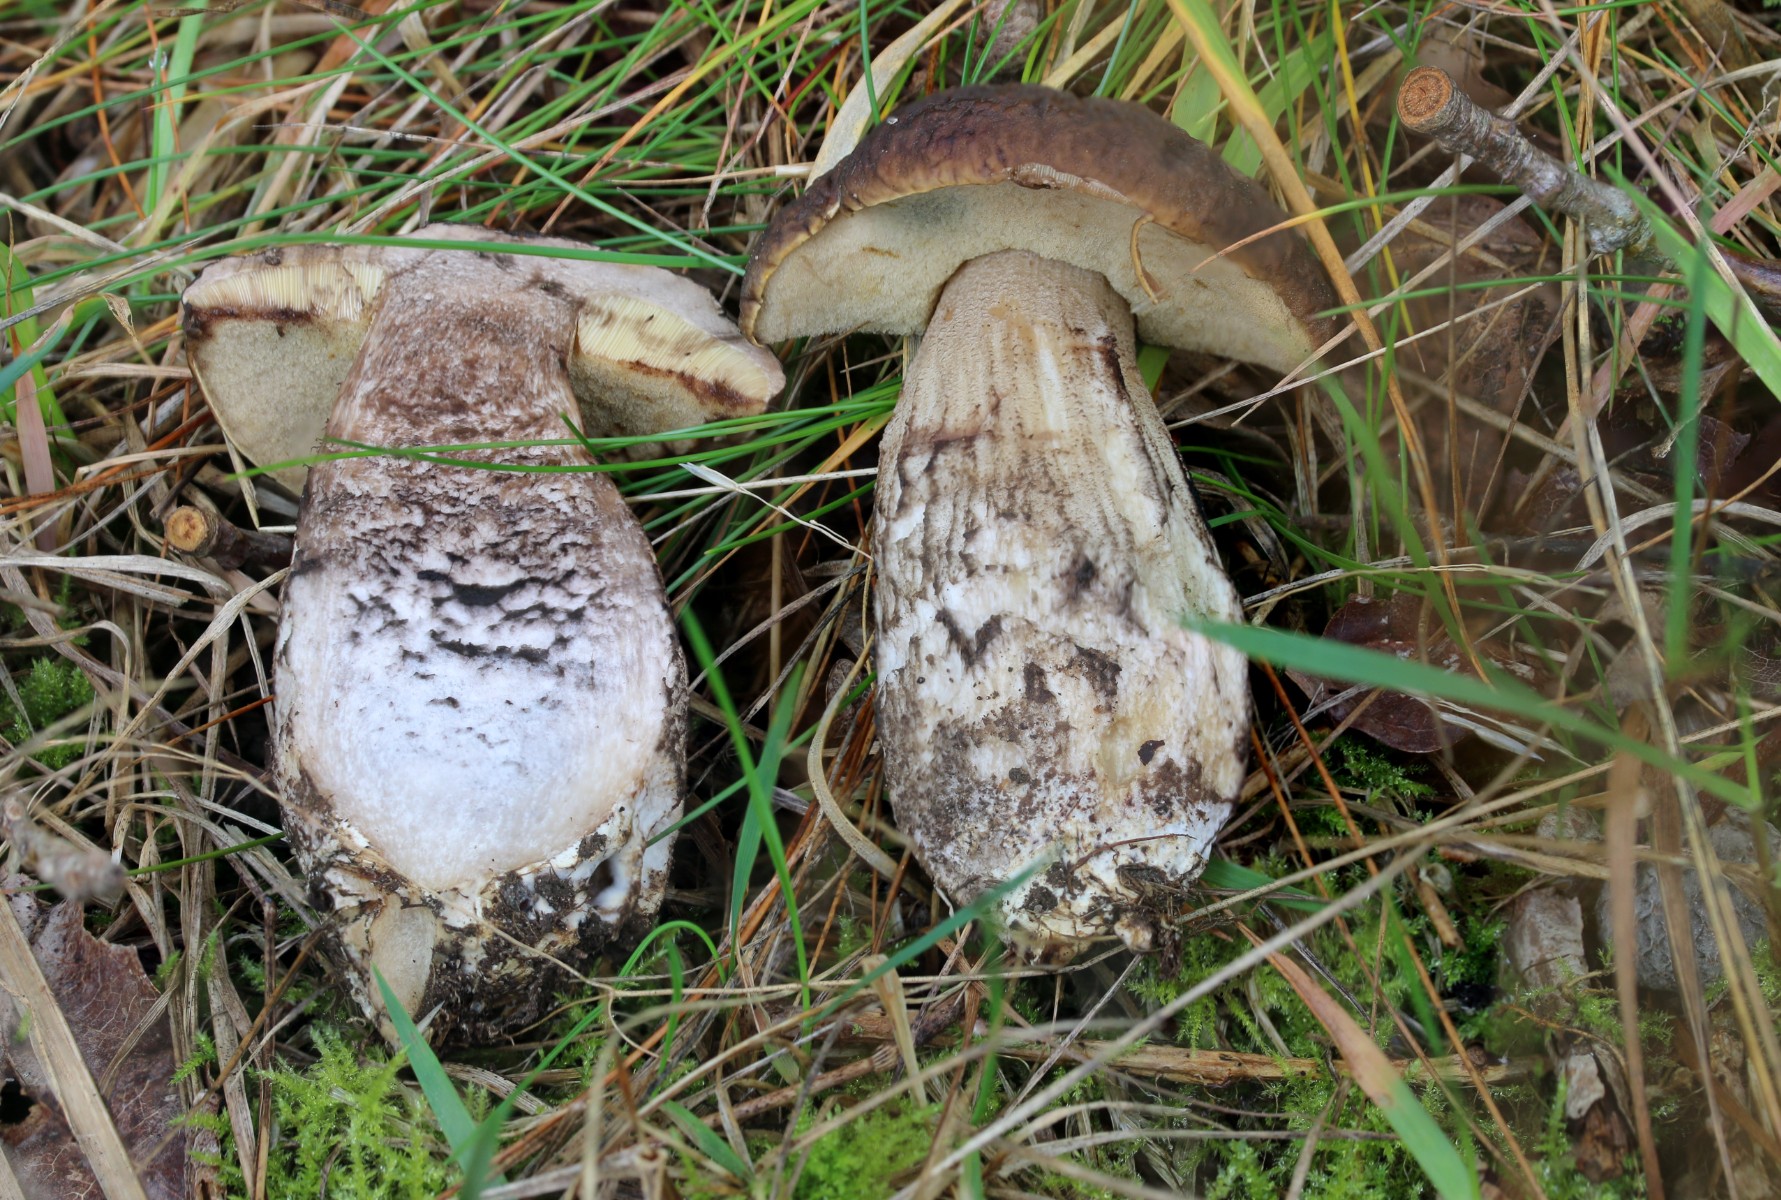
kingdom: Fungi
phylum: Basidiomycota
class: Agaricomycetes
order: Boletales
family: Boletaceae
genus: Leccinellum
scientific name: Leccinellum pseudoscabrum
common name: avnbøg-skælrørhat
